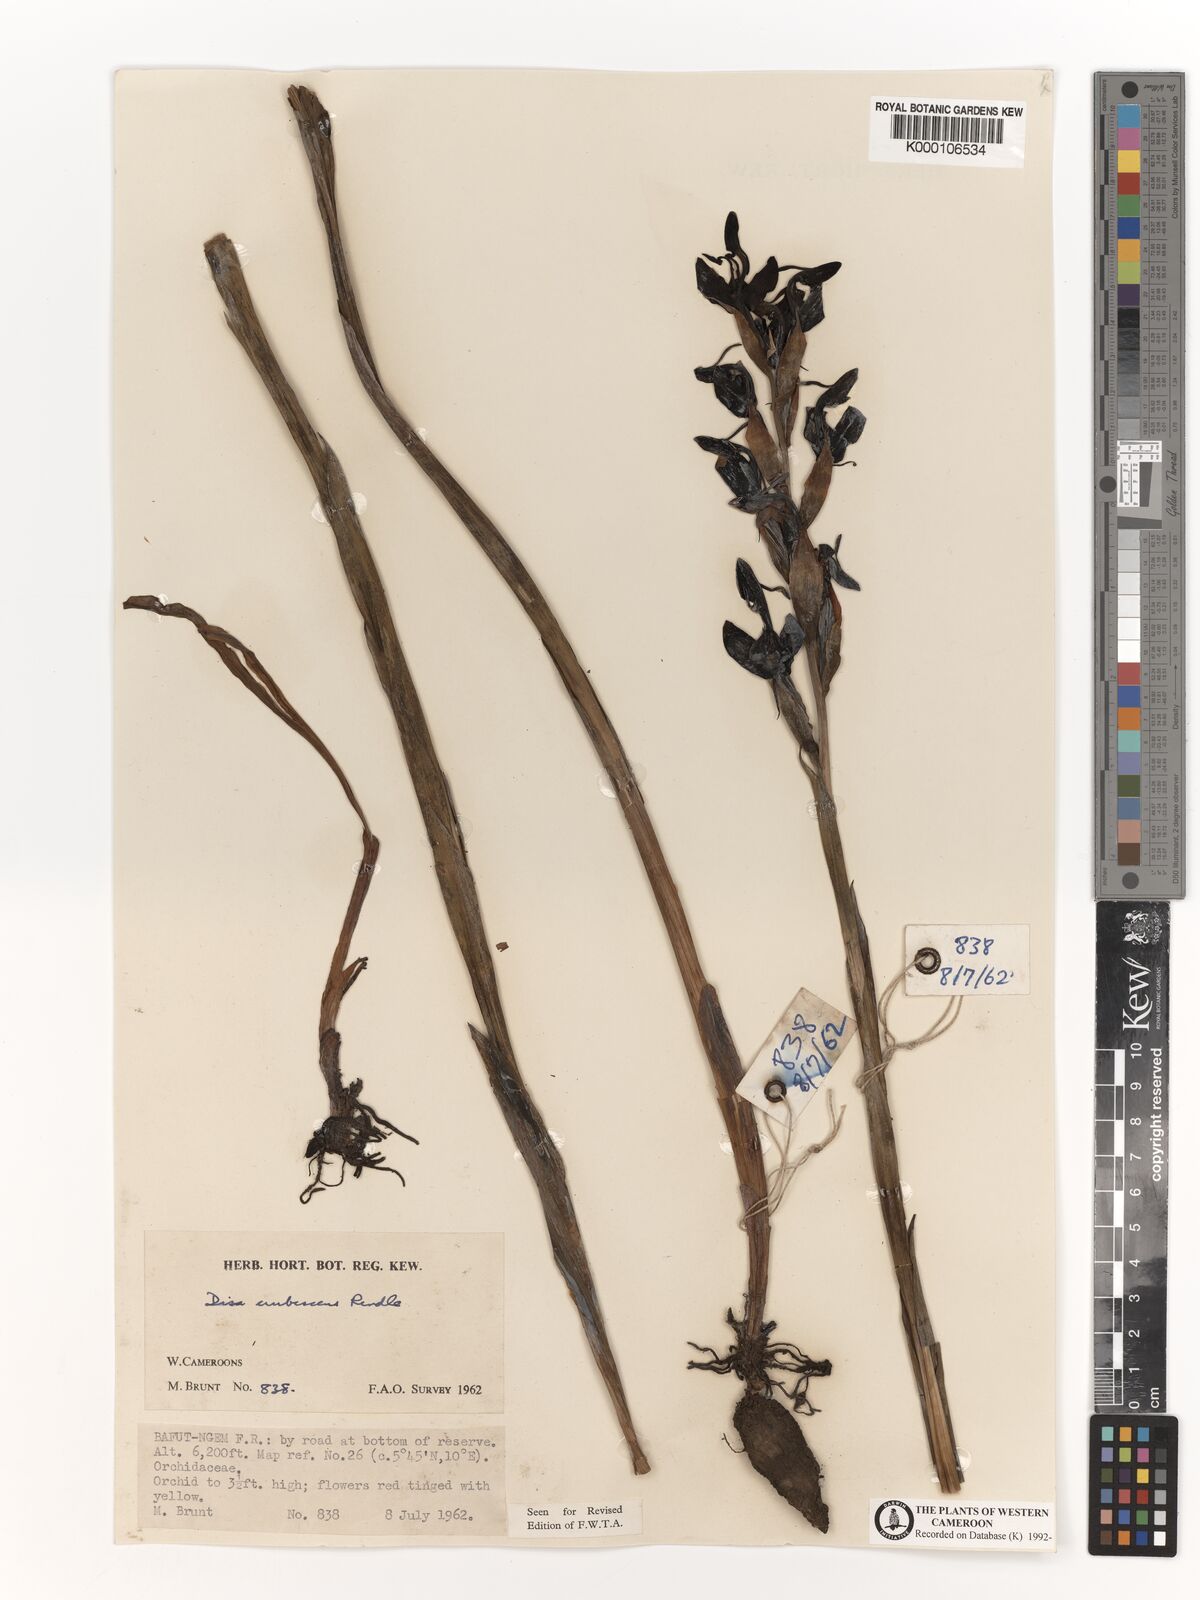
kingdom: Plantae
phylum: Tracheophyta
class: Liliopsida
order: Asparagales
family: Orchidaceae
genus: Disa
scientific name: Disa erubescens
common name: The rose disa
